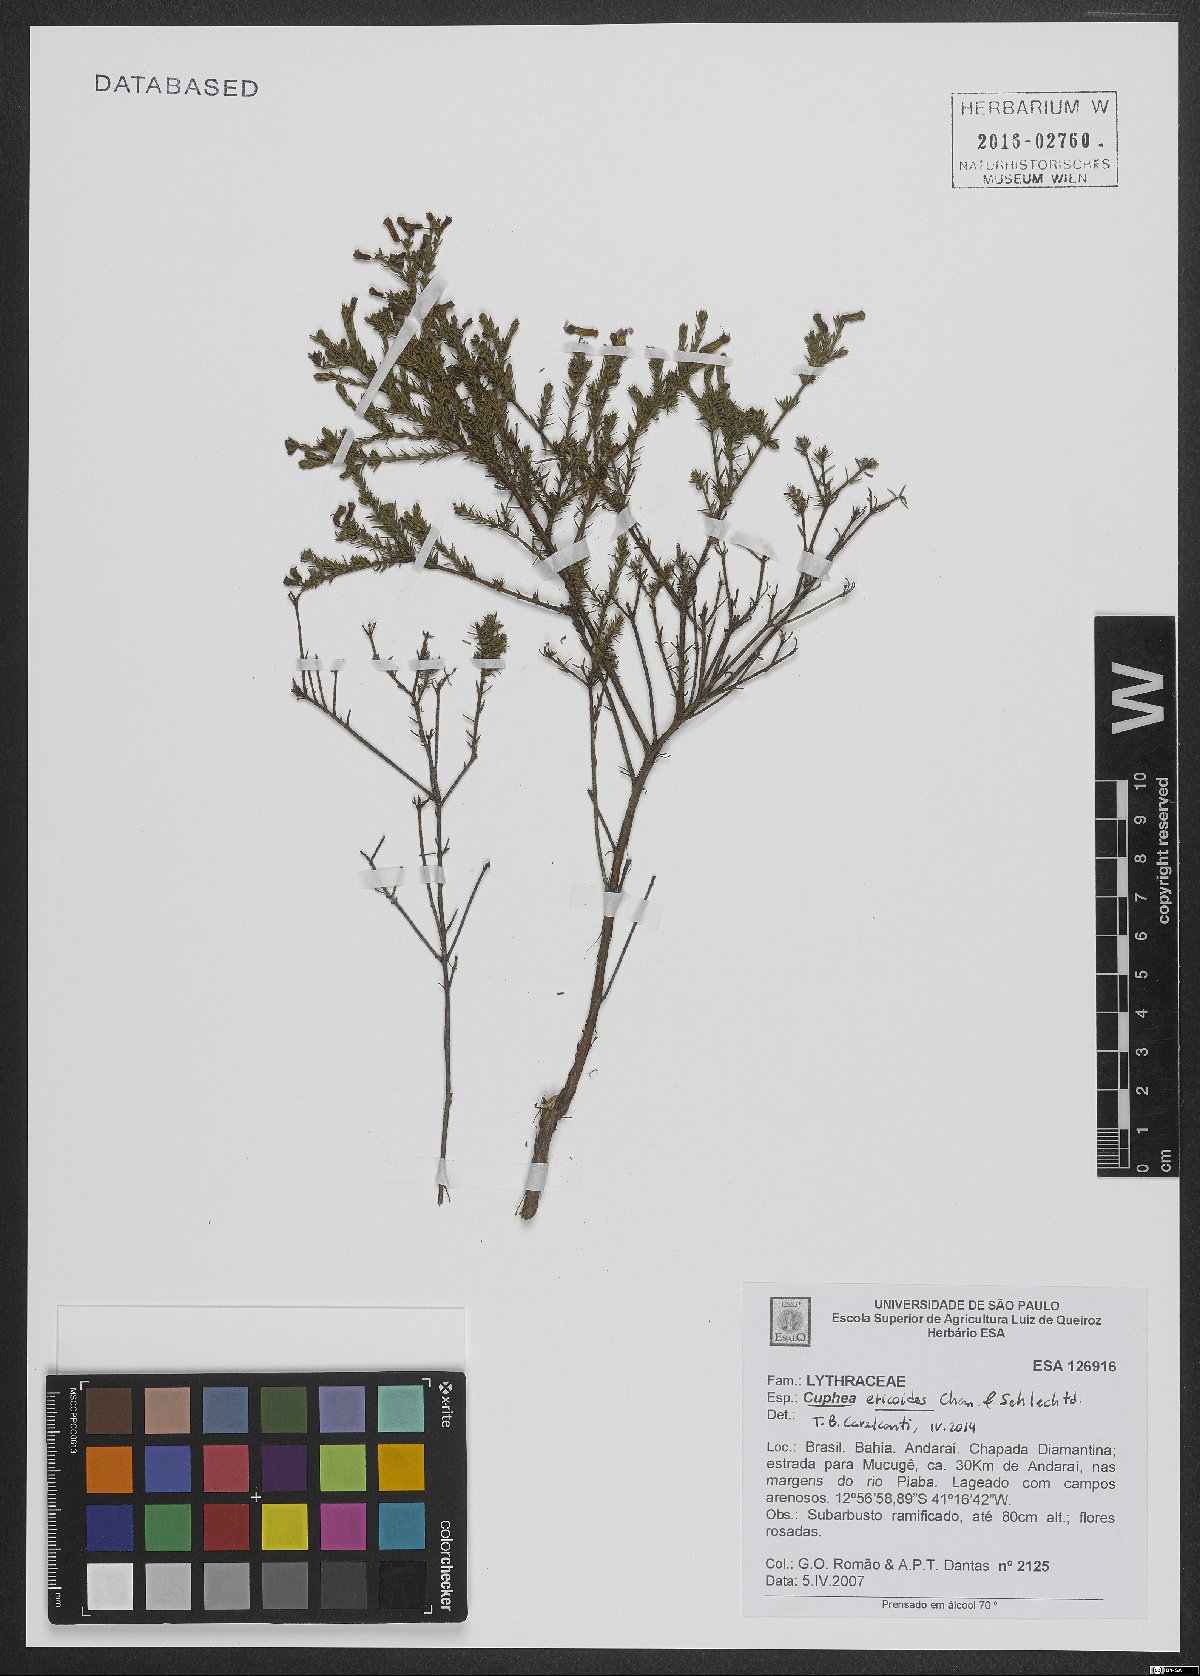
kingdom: Plantae
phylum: Tracheophyta
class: Magnoliopsida
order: Myrtales
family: Lythraceae
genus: Cuphea
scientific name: Cuphea ericoides
